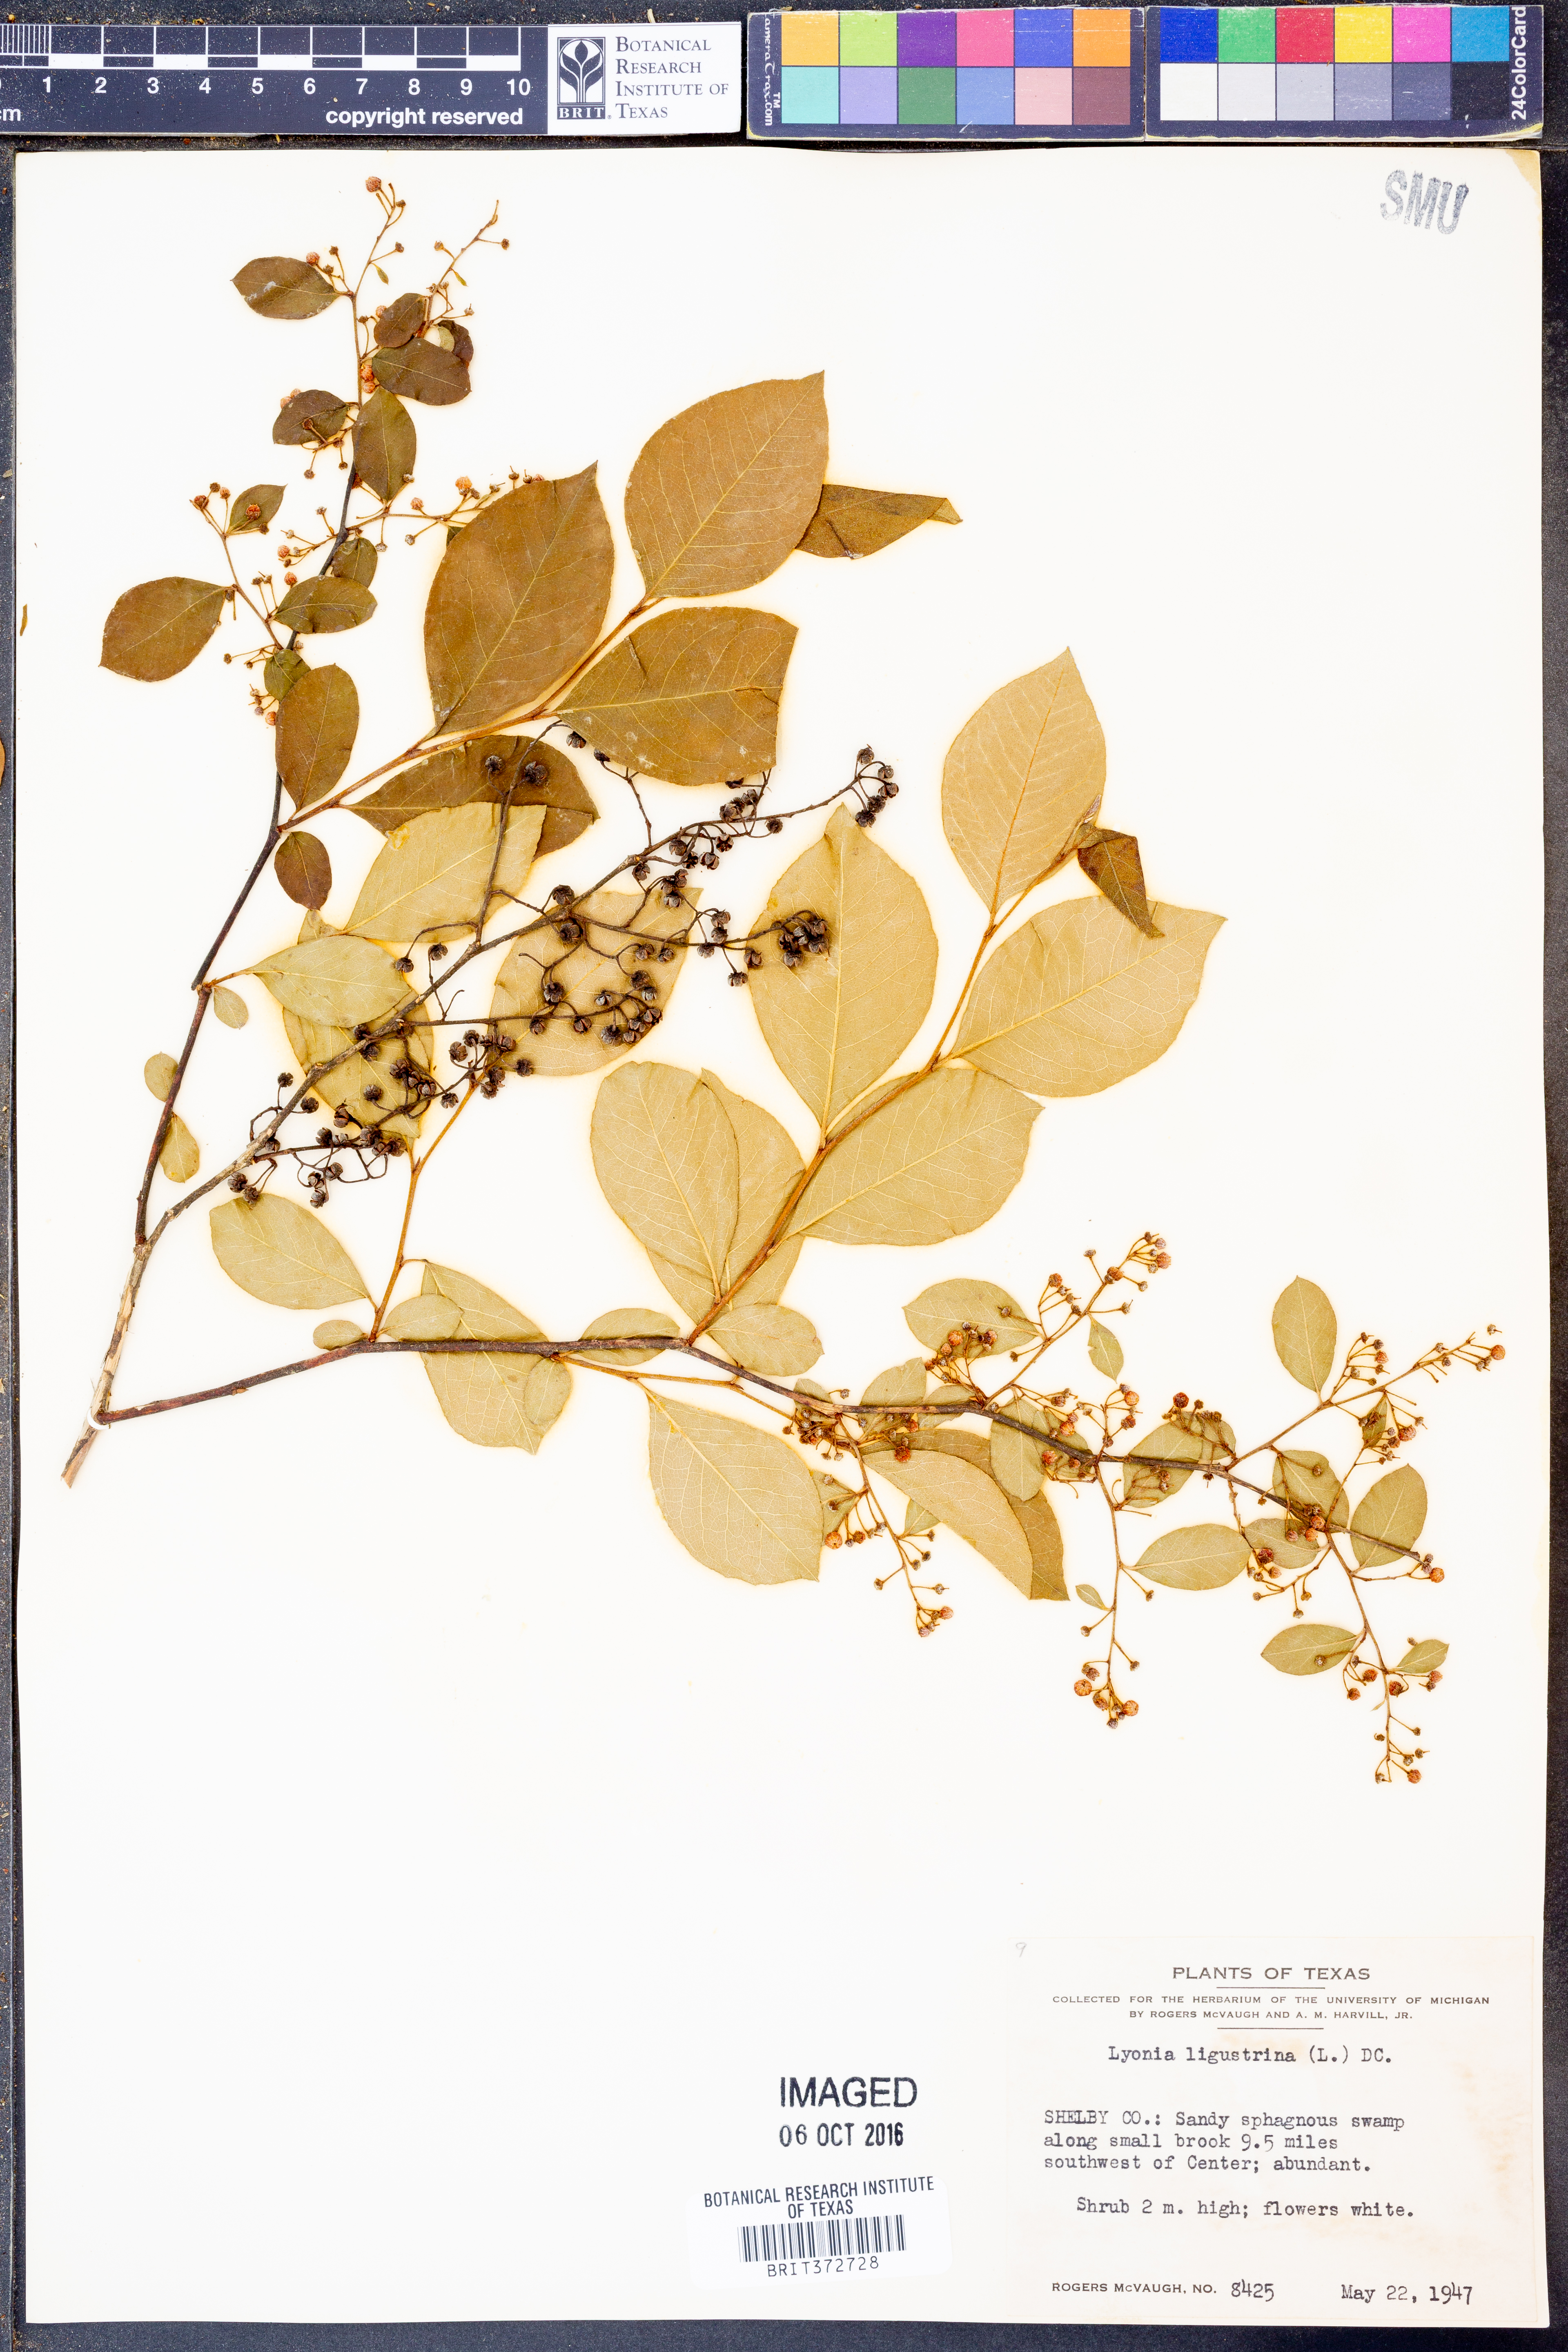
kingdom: Plantae
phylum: Tracheophyta
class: Magnoliopsida
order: Ericales
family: Ericaceae
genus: Lyonia
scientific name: Lyonia ligustrina
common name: Maleberry
